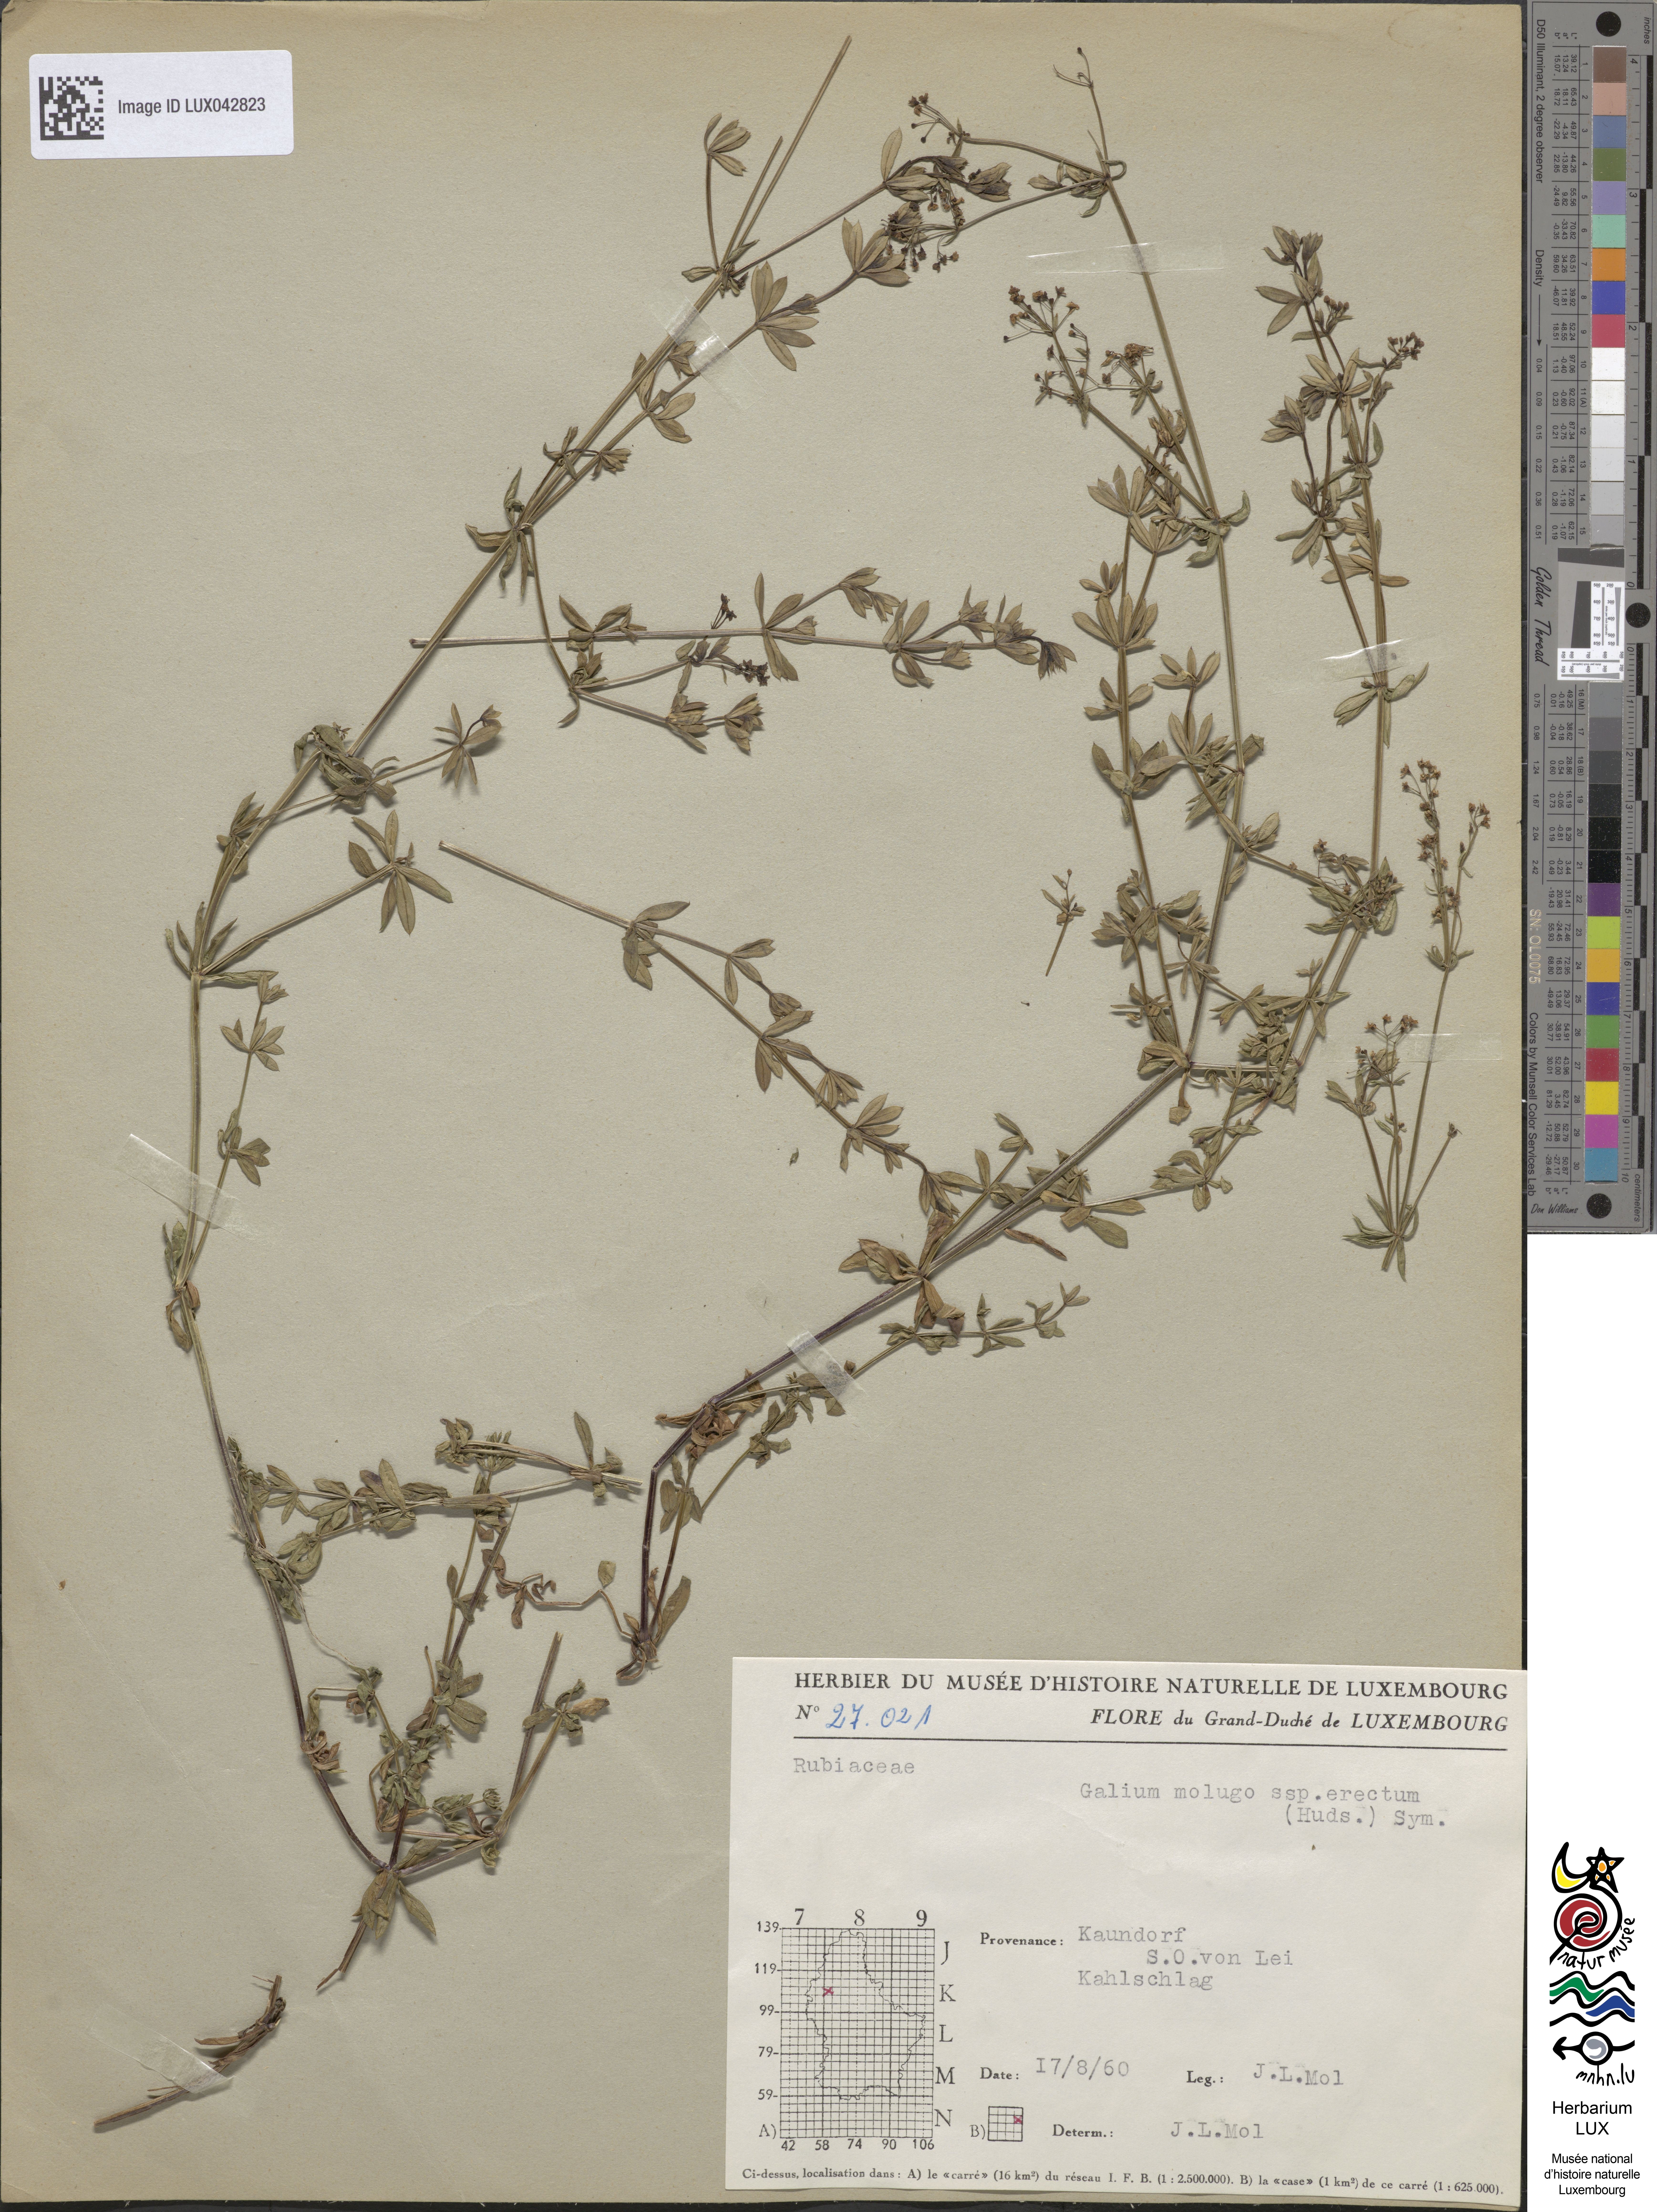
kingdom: Plantae
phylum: Tracheophyta
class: Magnoliopsida
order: Gentianales
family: Rubiaceae
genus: Galium
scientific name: Galium album
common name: White bedstraw
